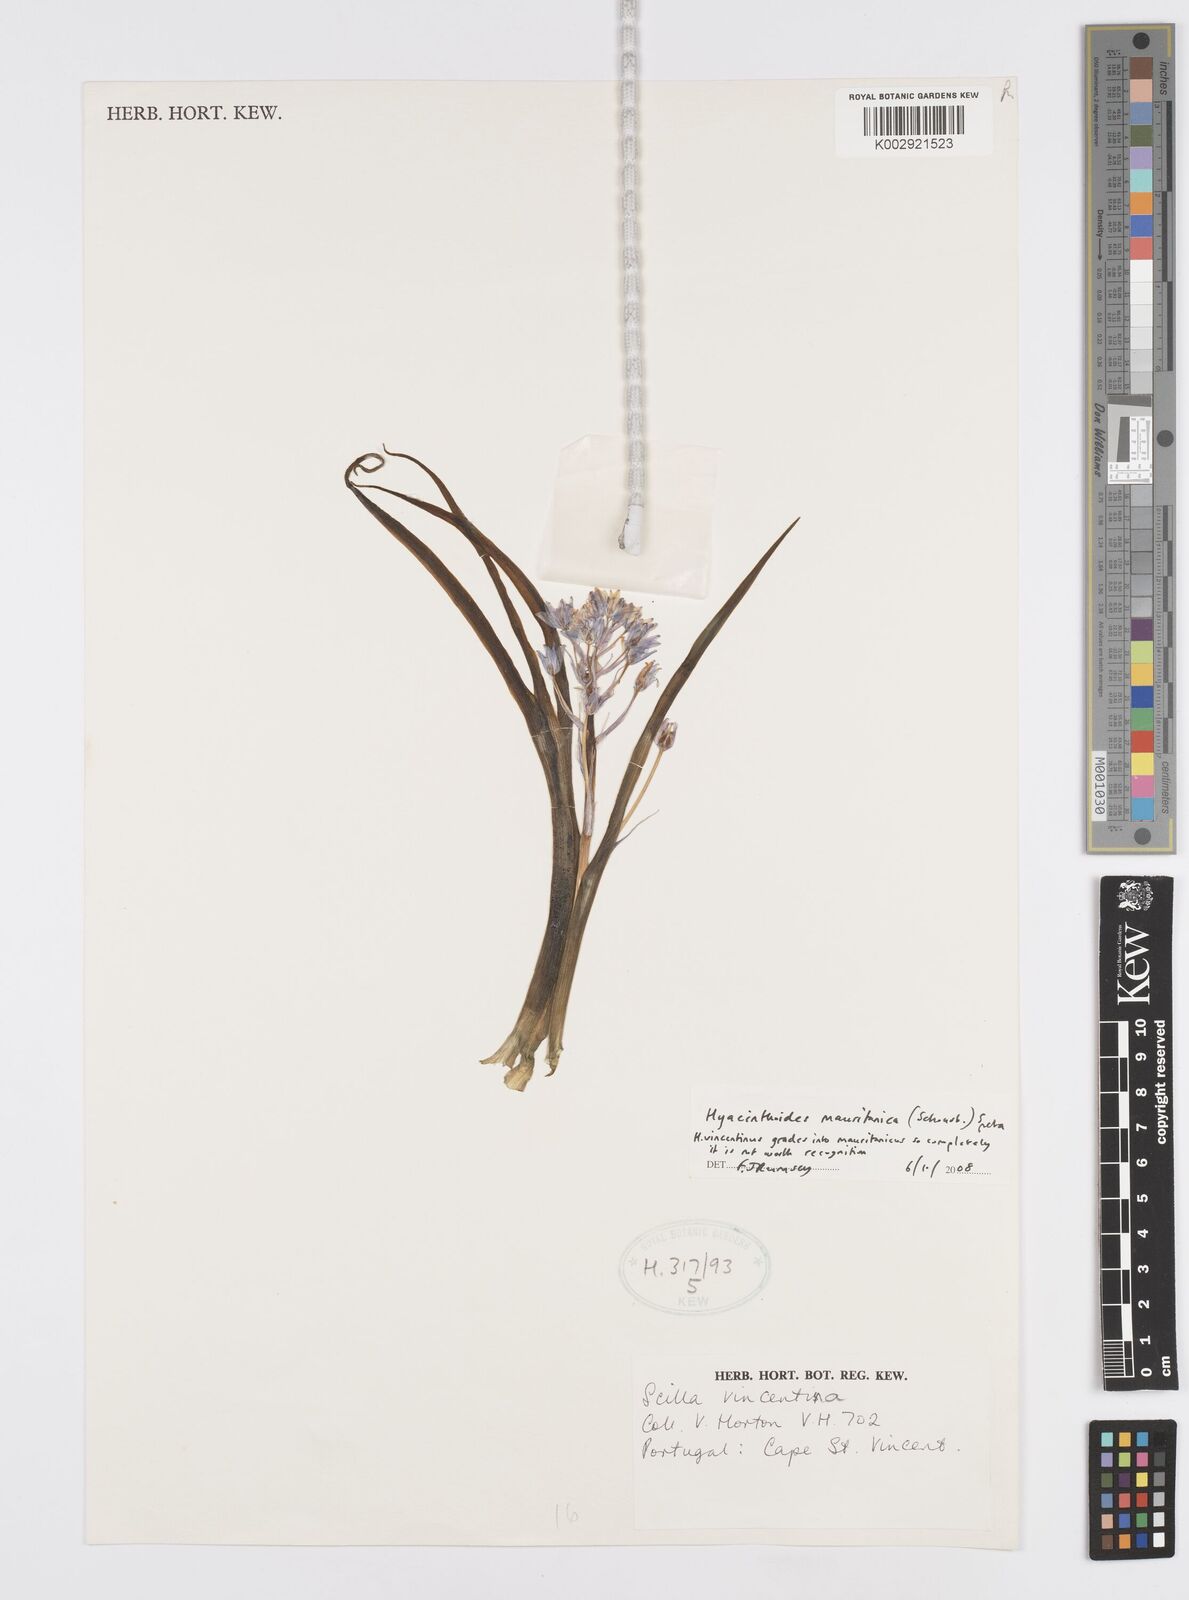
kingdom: Plantae
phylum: Tracheophyta
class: Liliopsida
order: Asparagales
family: Asparagaceae
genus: Hyacinthoides
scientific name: Hyacinthoides mauritanica
